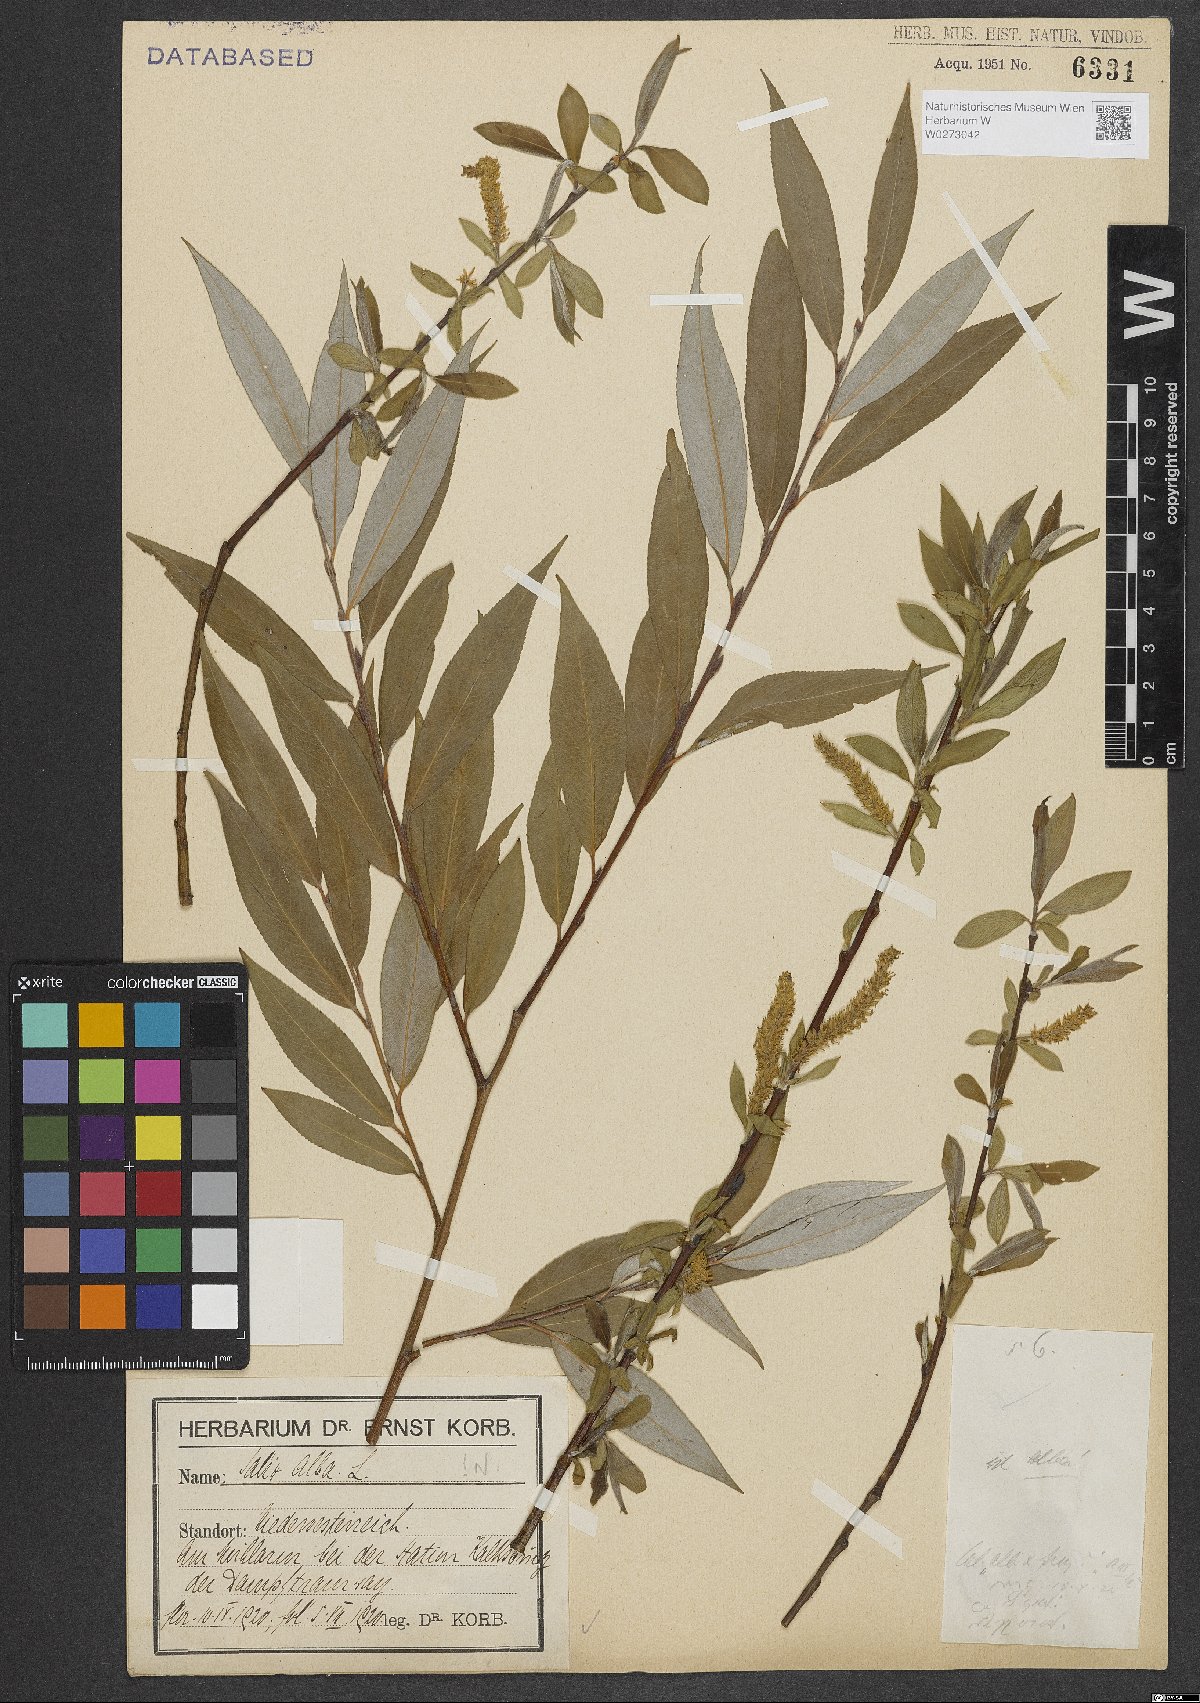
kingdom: Plantae
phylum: Tracheophyta
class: Magnoliopsida
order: Malpighiales
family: Salicaceae
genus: Salix
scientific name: Salix alba
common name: White willow
